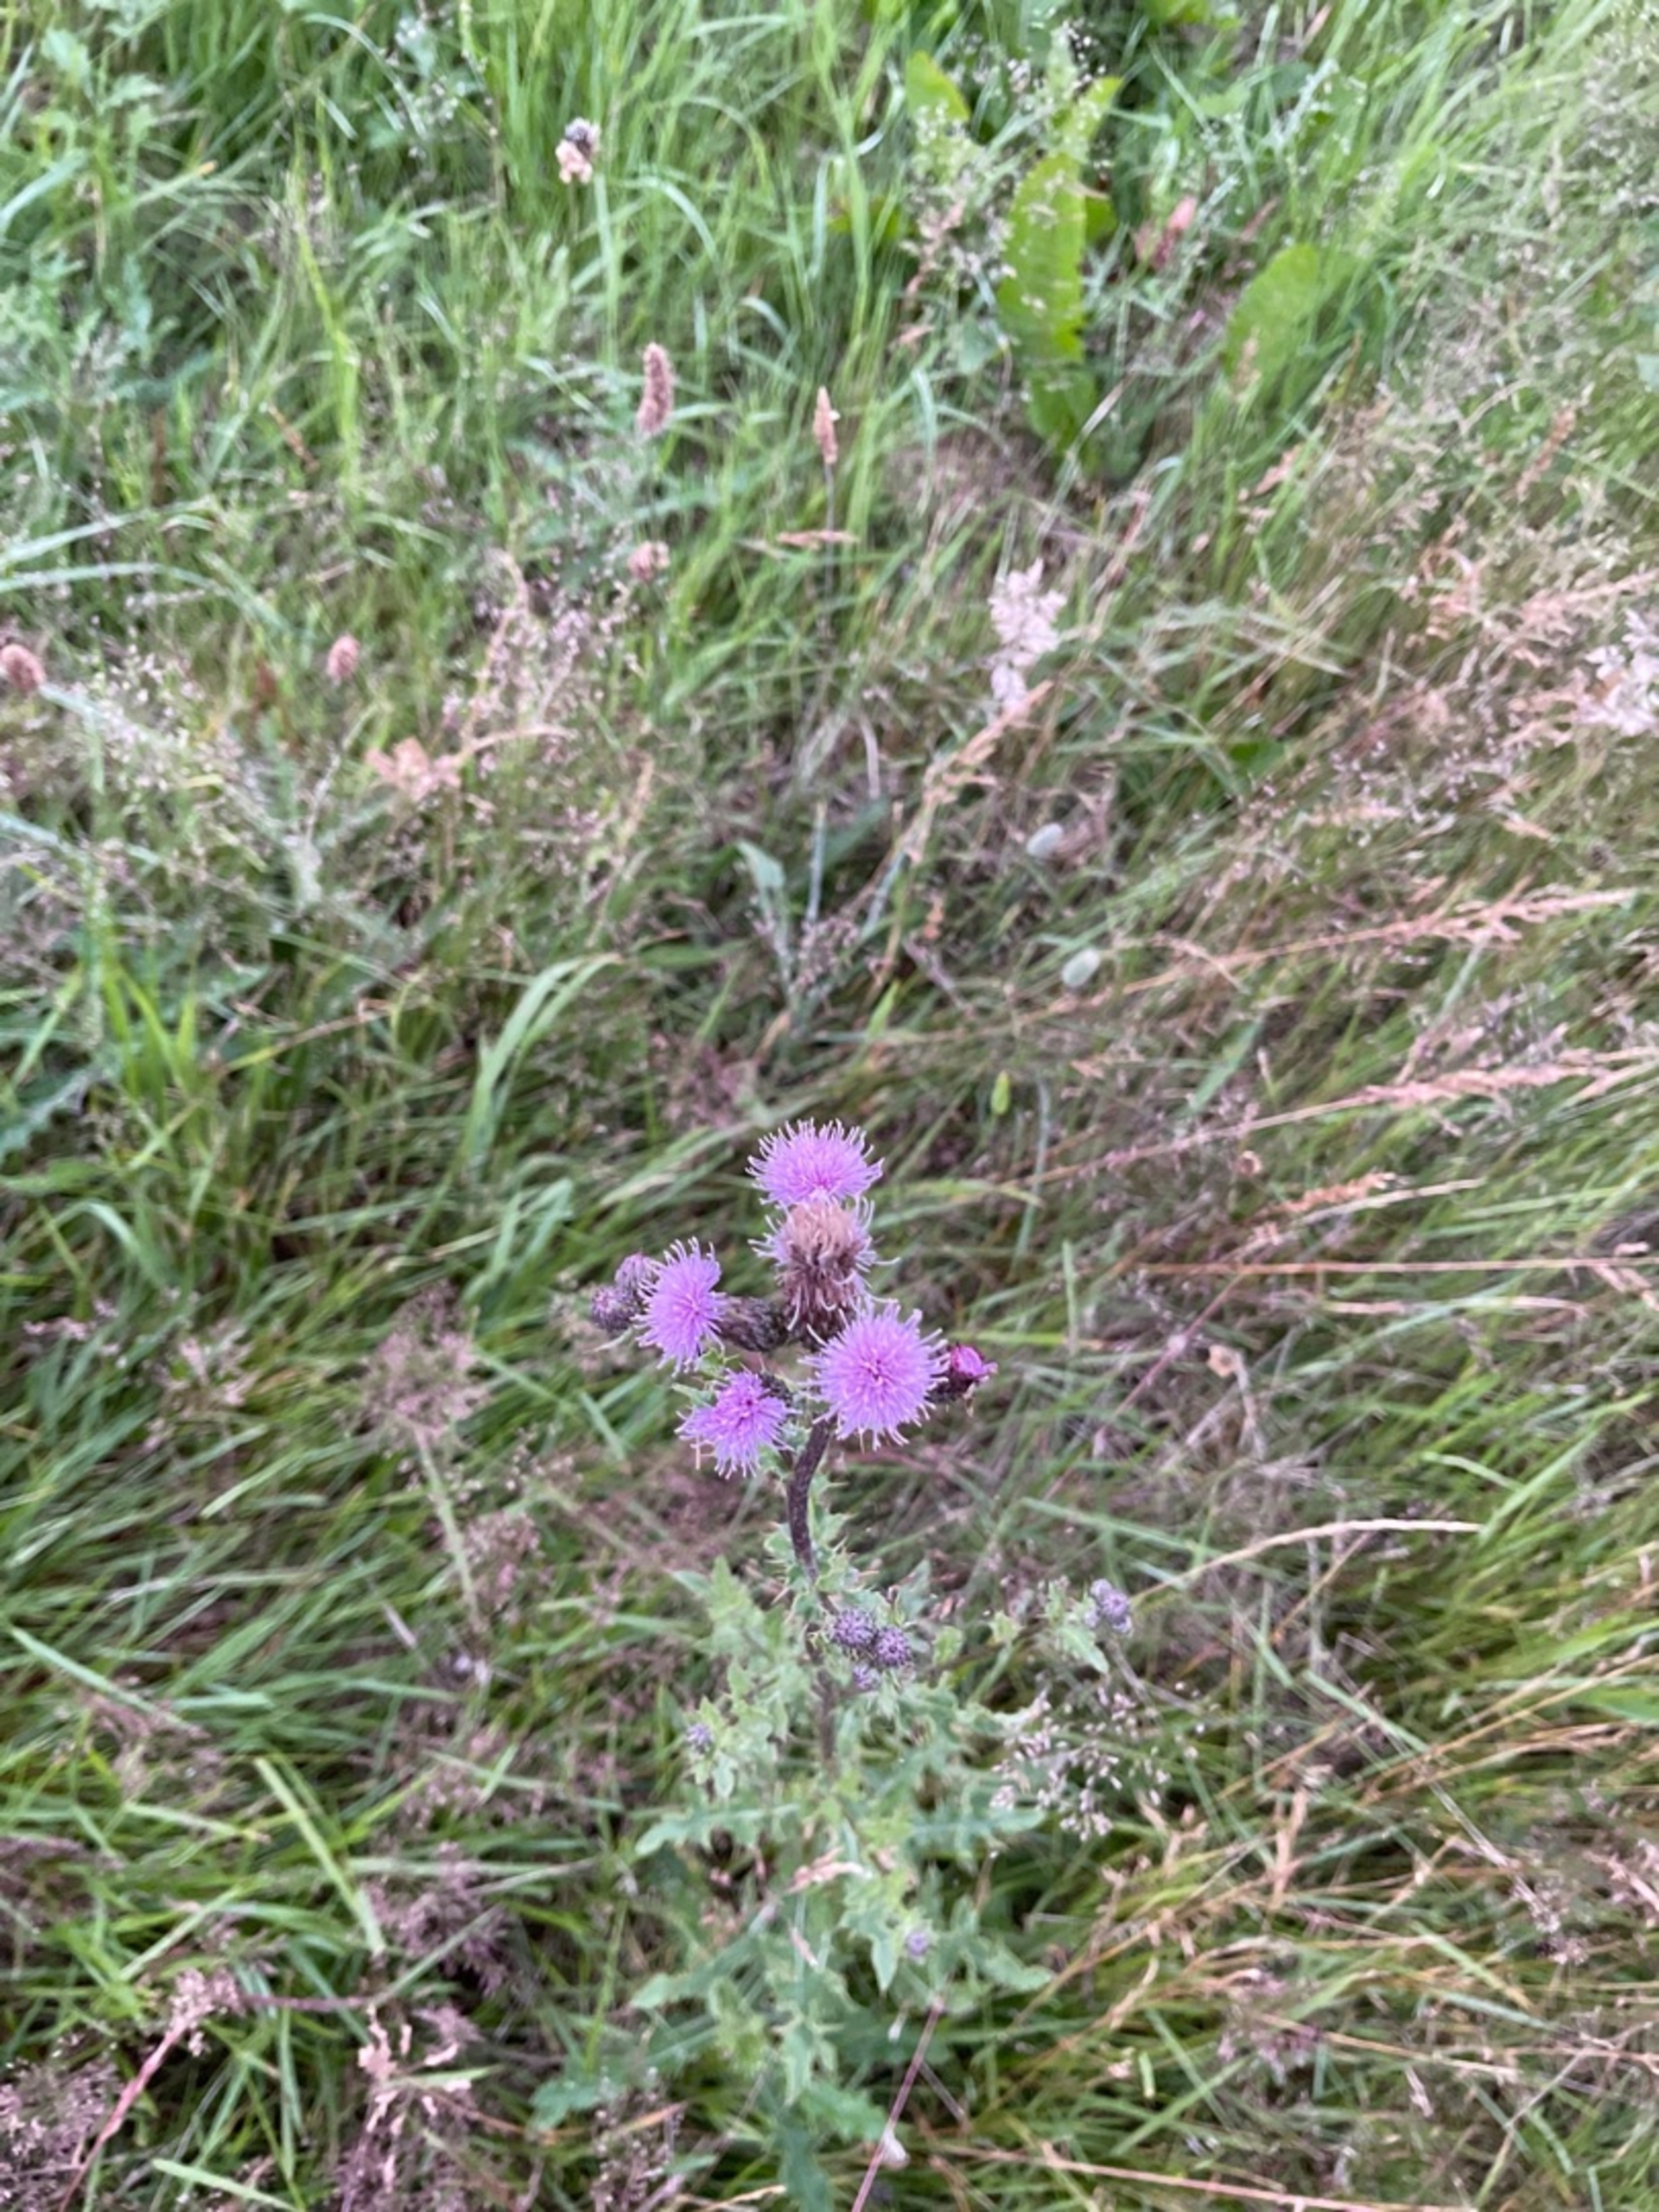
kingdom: Plantae
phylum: Tracheophyta
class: Magnoliopsida
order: Asterales
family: Asteraceae
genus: Cirsium
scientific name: Cirsium arvense
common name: Ager-tidsel
